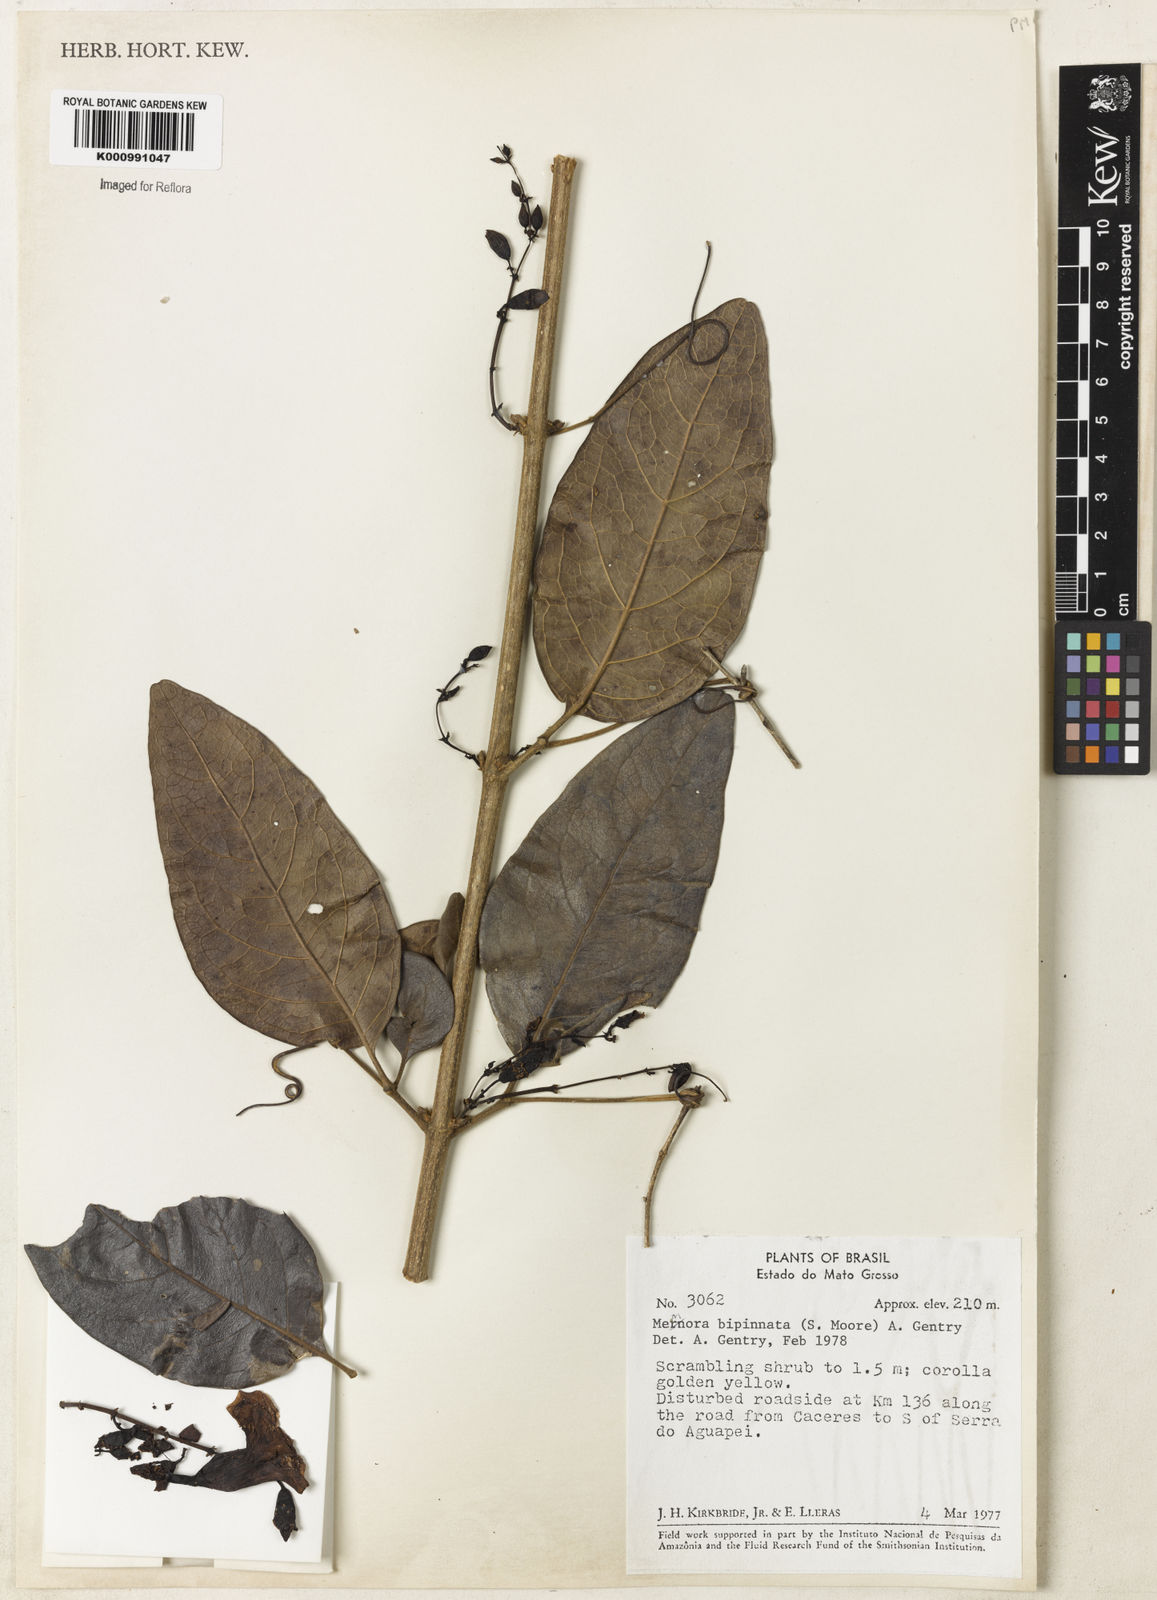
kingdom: Plantae
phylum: Tracheophyta
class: Magnoliopsida
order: Lamiales
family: Bignoniaceae
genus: Adenocalymma
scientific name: Adenocalymma bipinnatum
